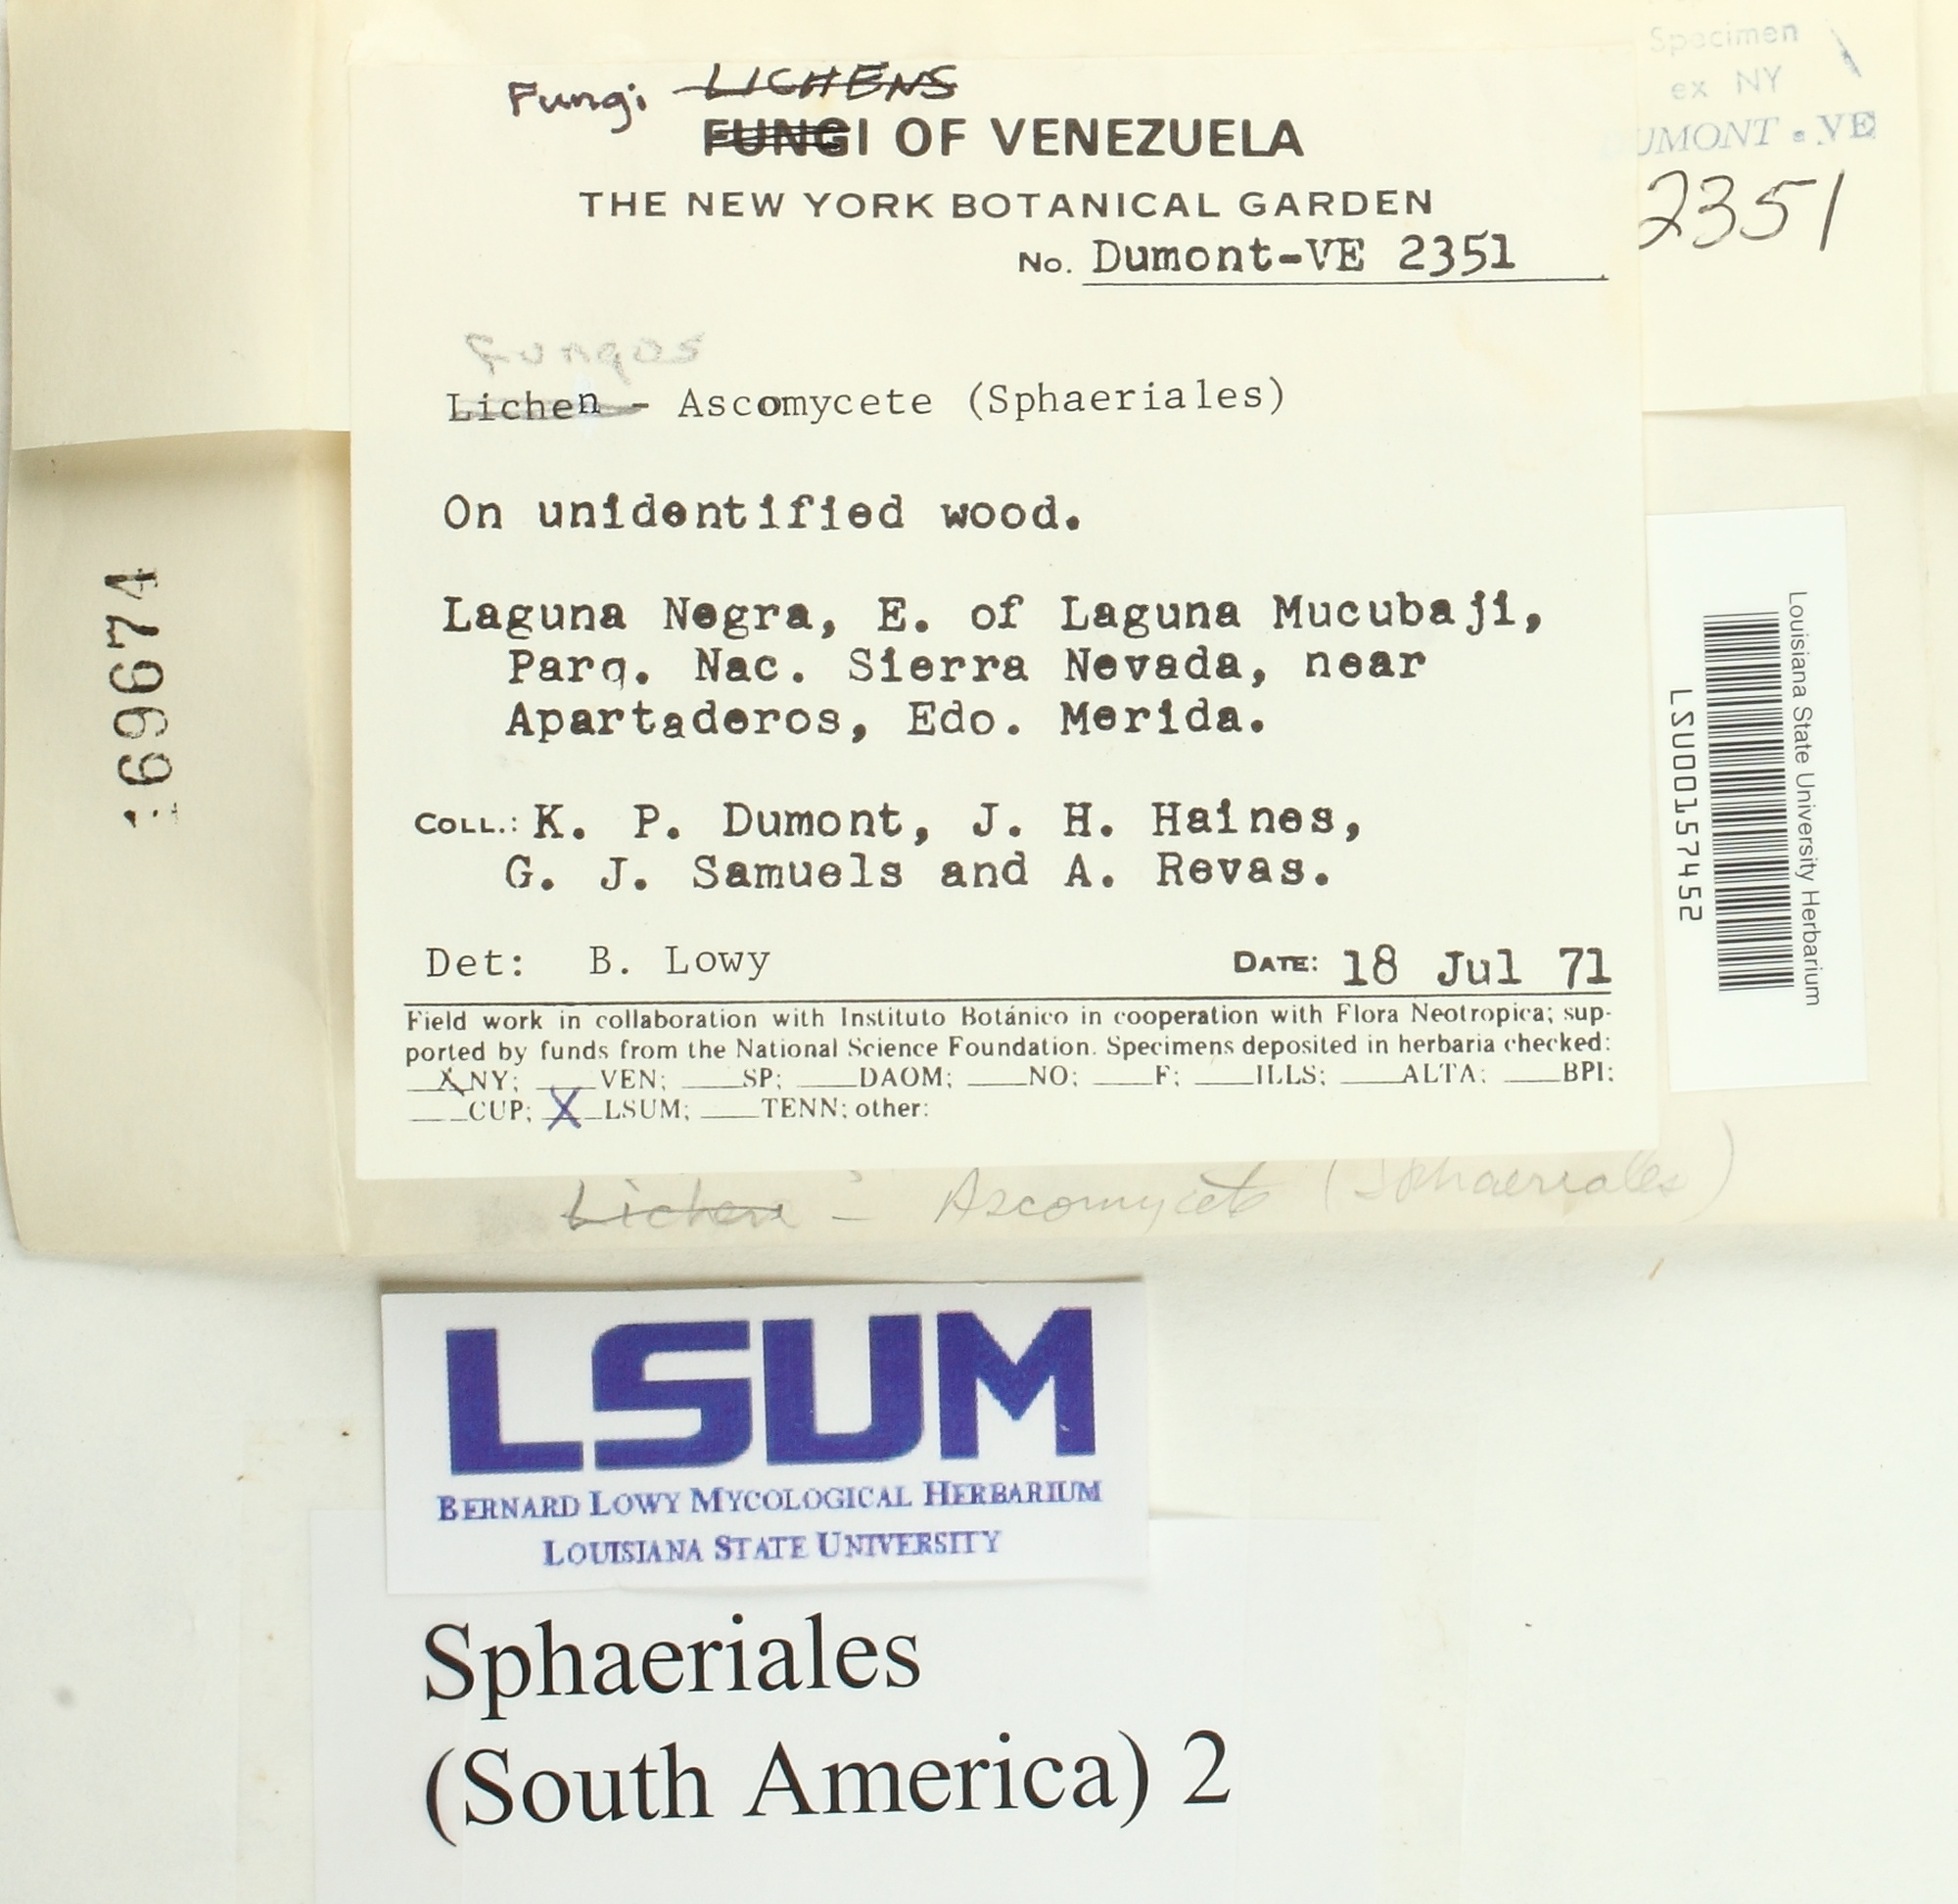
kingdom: Fungi
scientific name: Fungi
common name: Fungi
